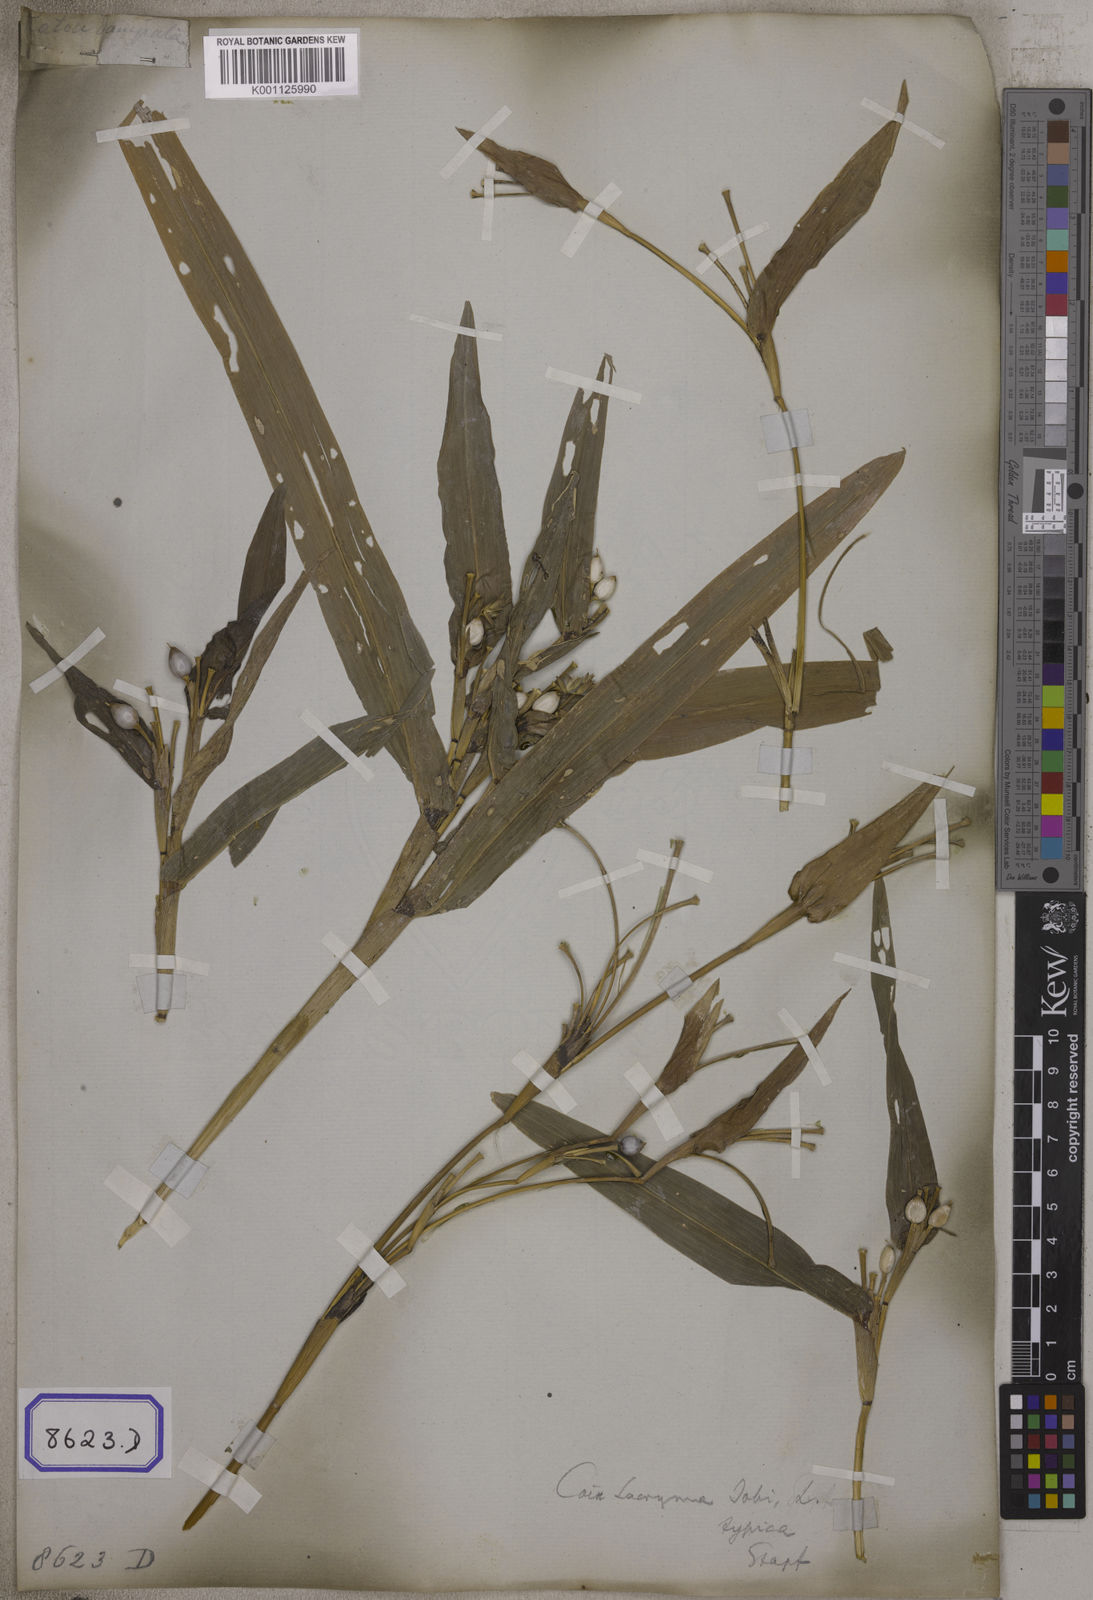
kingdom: Plantae
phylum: Tracheophyta
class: Liliopsida
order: Poales
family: Poaceae
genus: Coix
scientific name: Coix lacryma-jobi
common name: Job's tears
